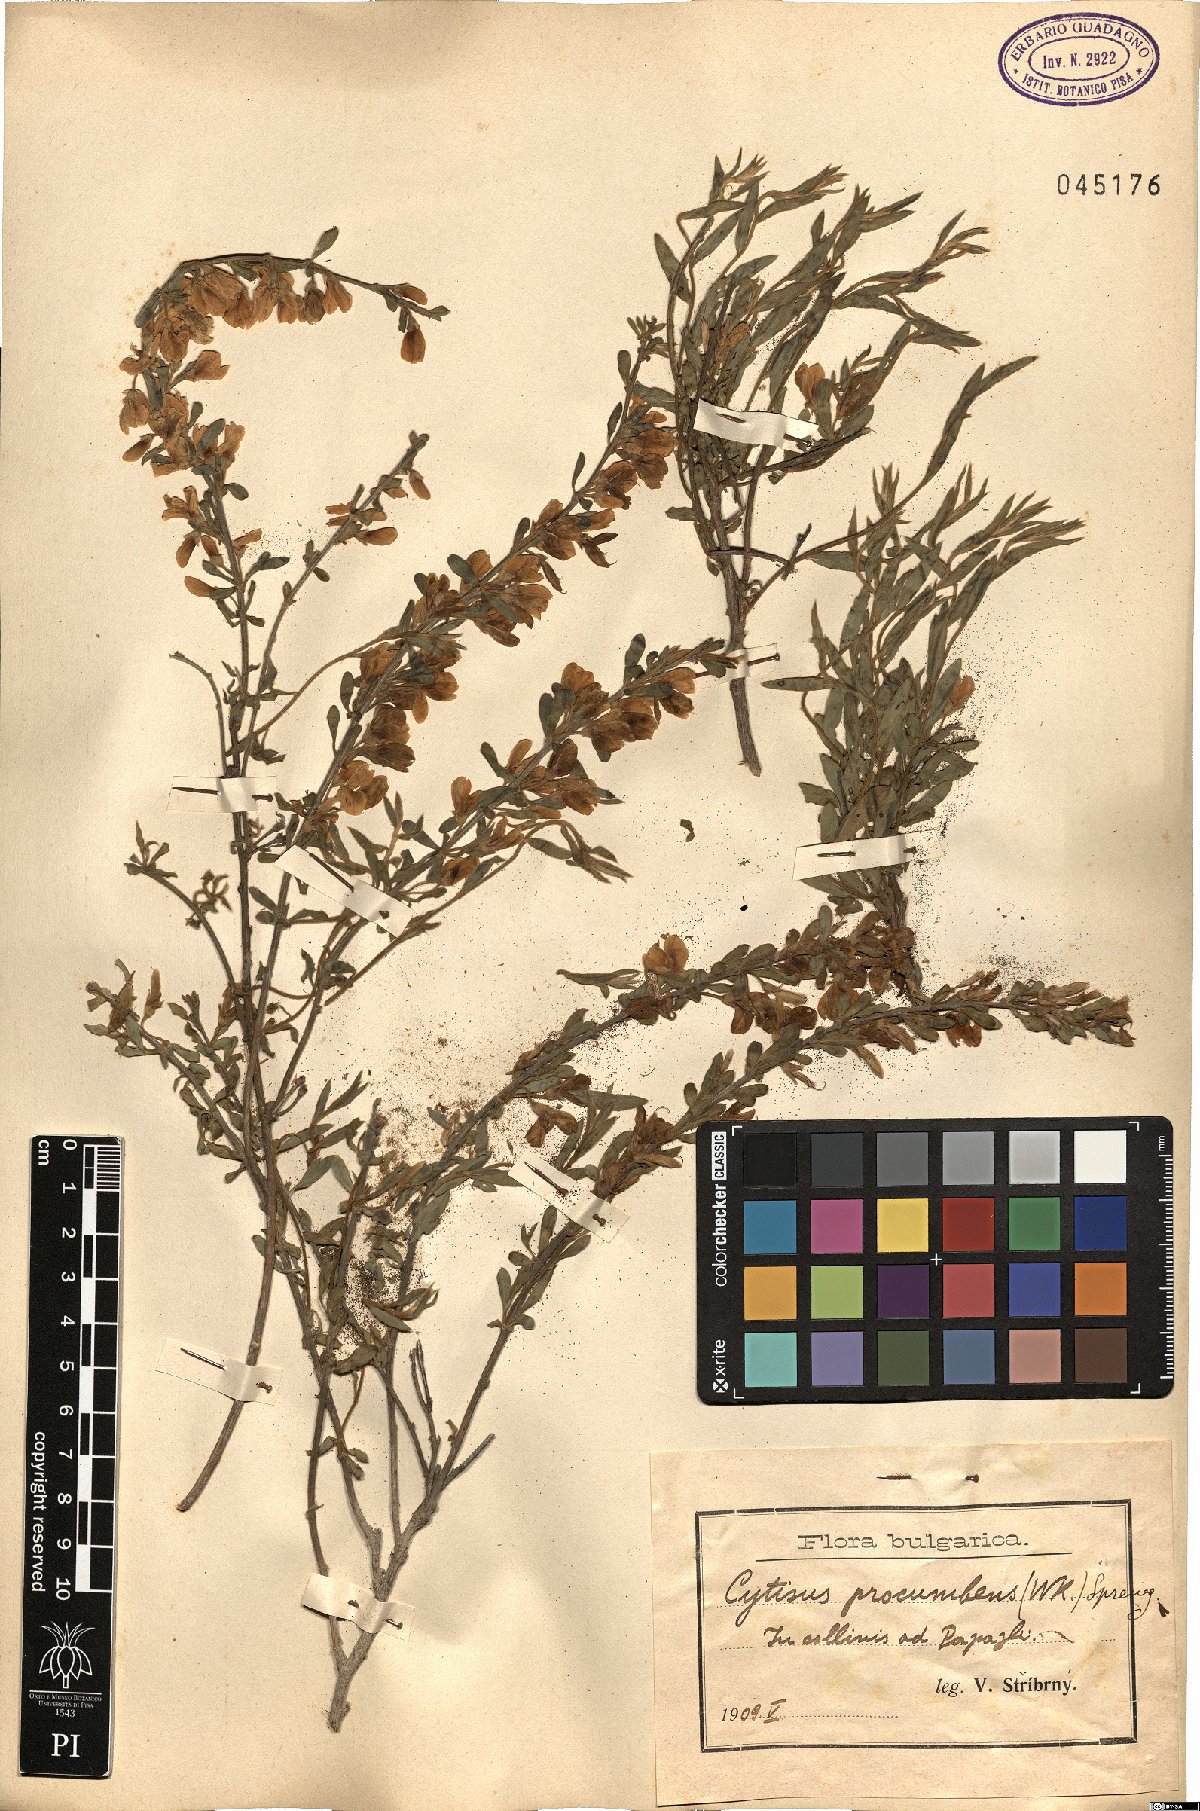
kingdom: Plantae
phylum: Tracheophyta
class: Magnoliopsida
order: Fabales
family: Fabaceae
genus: Cytisus
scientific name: Cytisus procumbens
